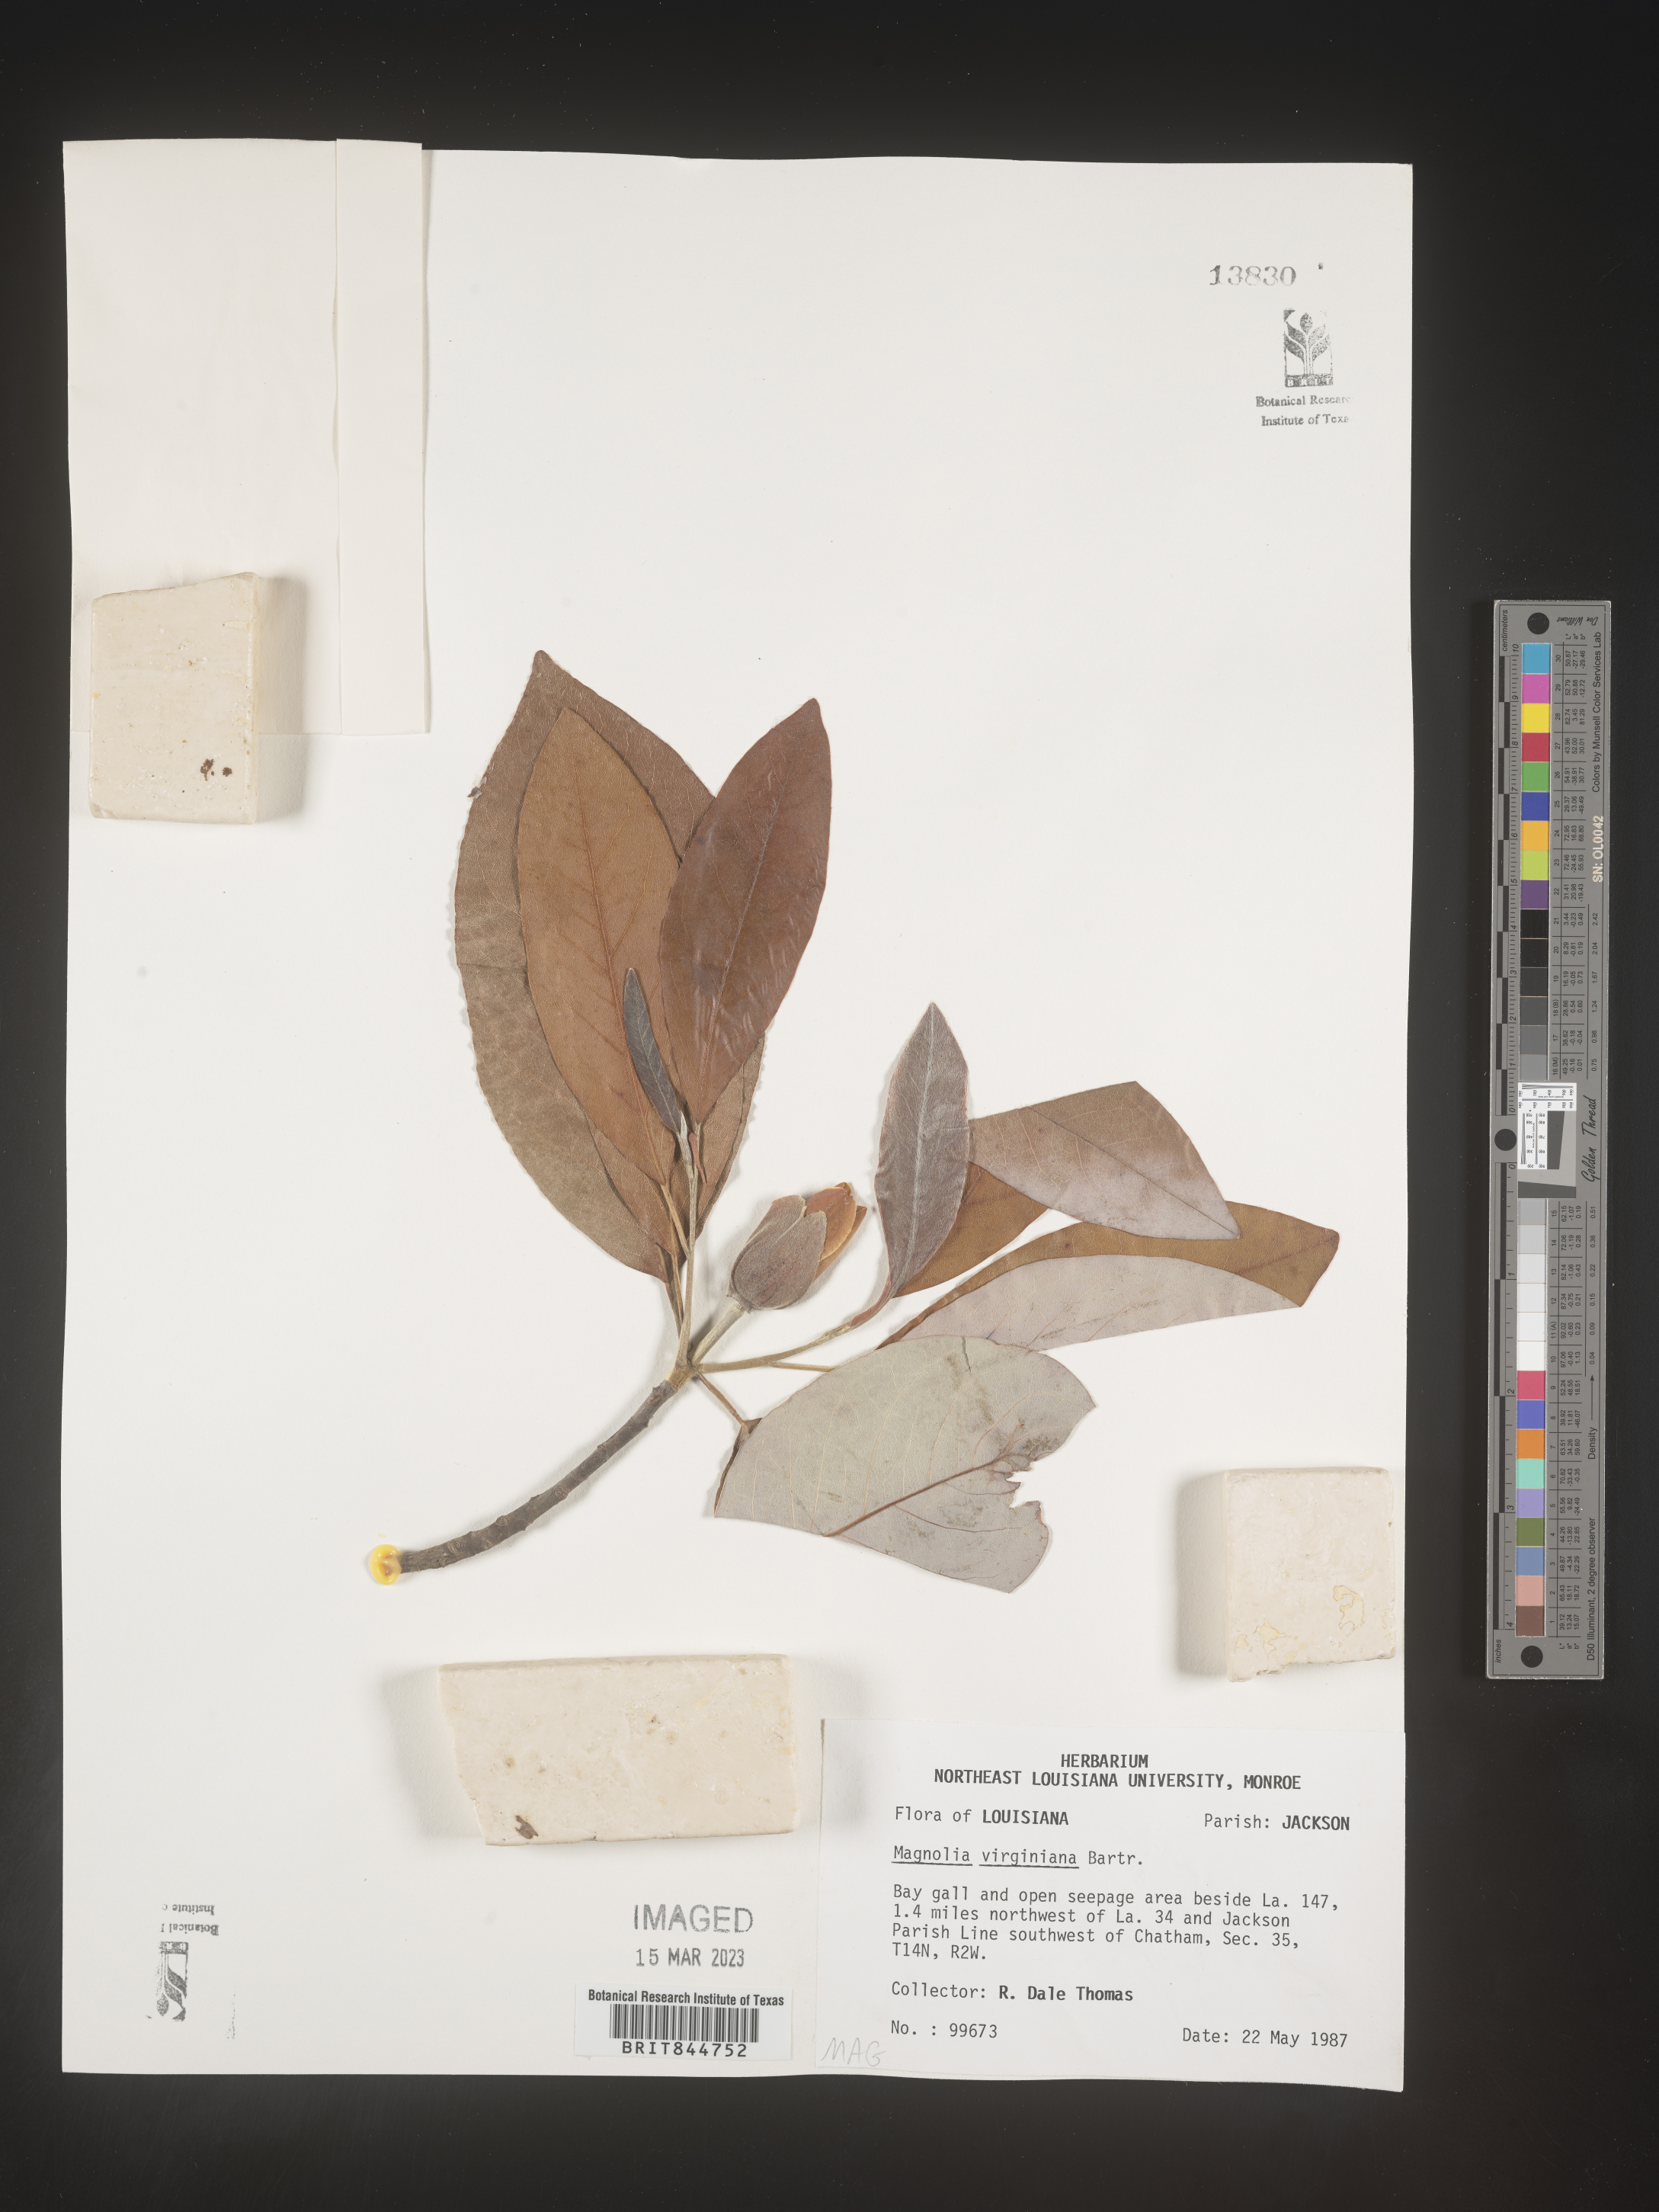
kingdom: Plantae
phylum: Tracheophyta
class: Magnoliopsida
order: Magnoliales
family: Magnoliaceae
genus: Magnolia
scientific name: Magnolia virginiana
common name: Swamp bay
